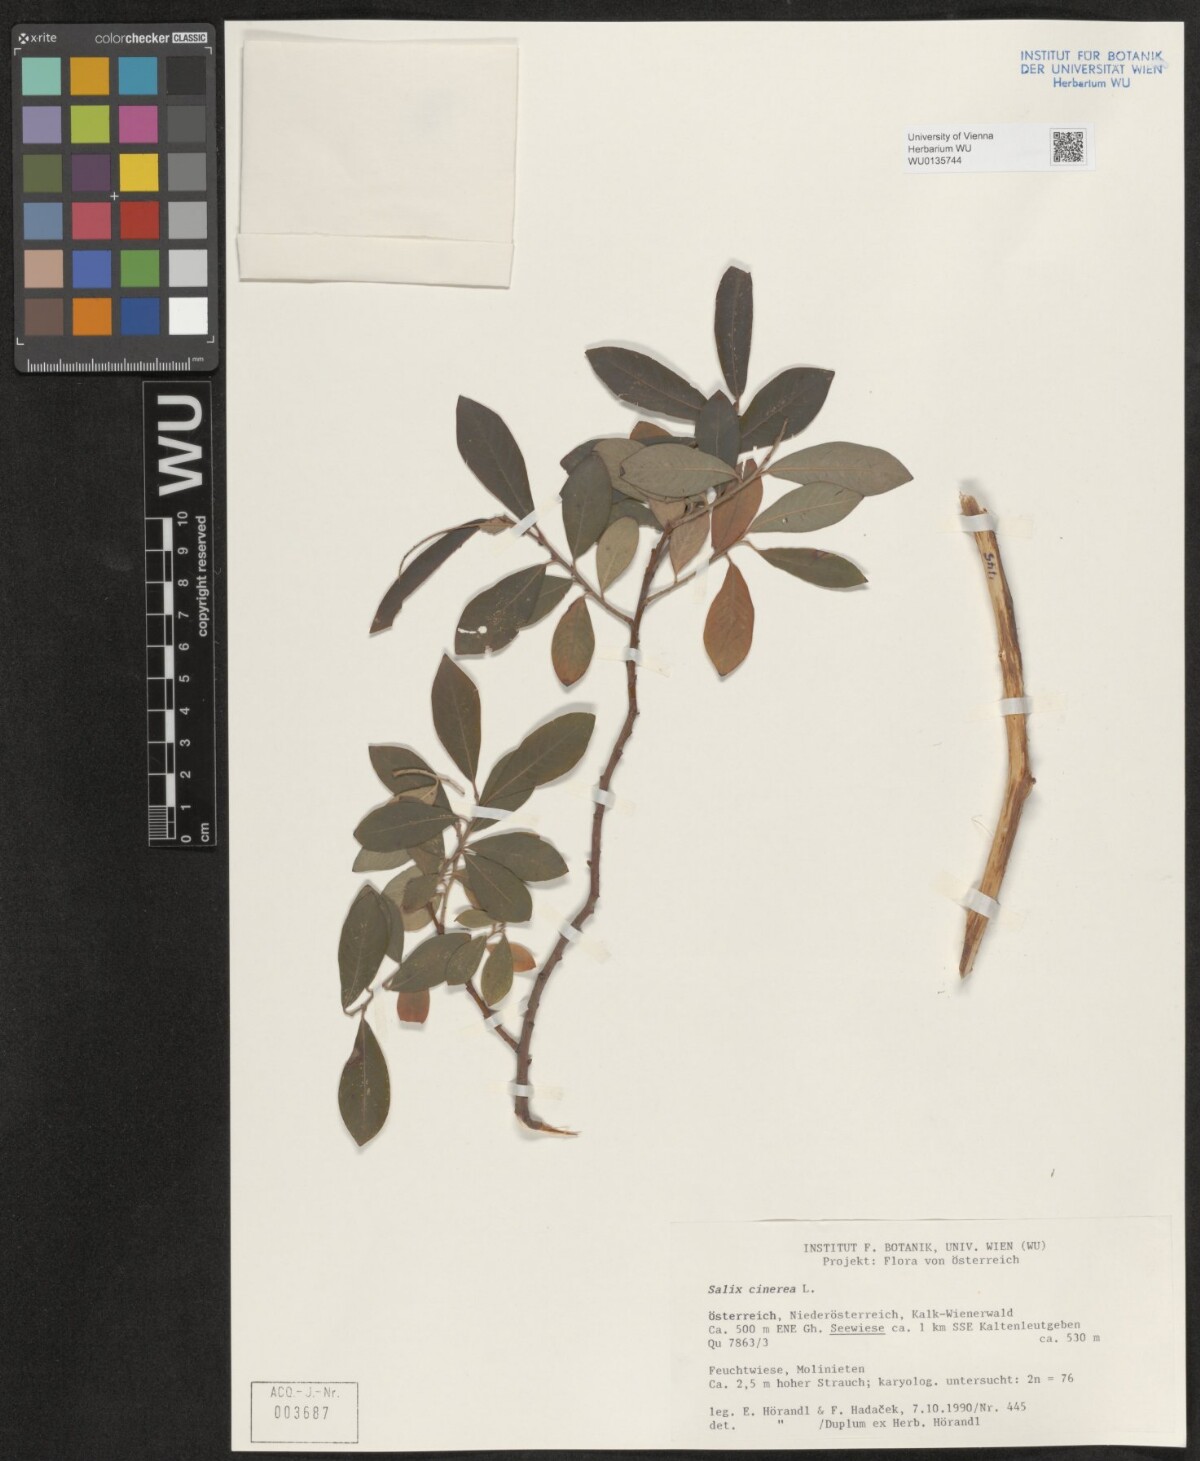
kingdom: Plantae
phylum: Tracheophyta
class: Magnoliopsida
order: Malpighiales
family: Salicaceae
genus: Salix
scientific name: Salix cinerea
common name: Common sallow
